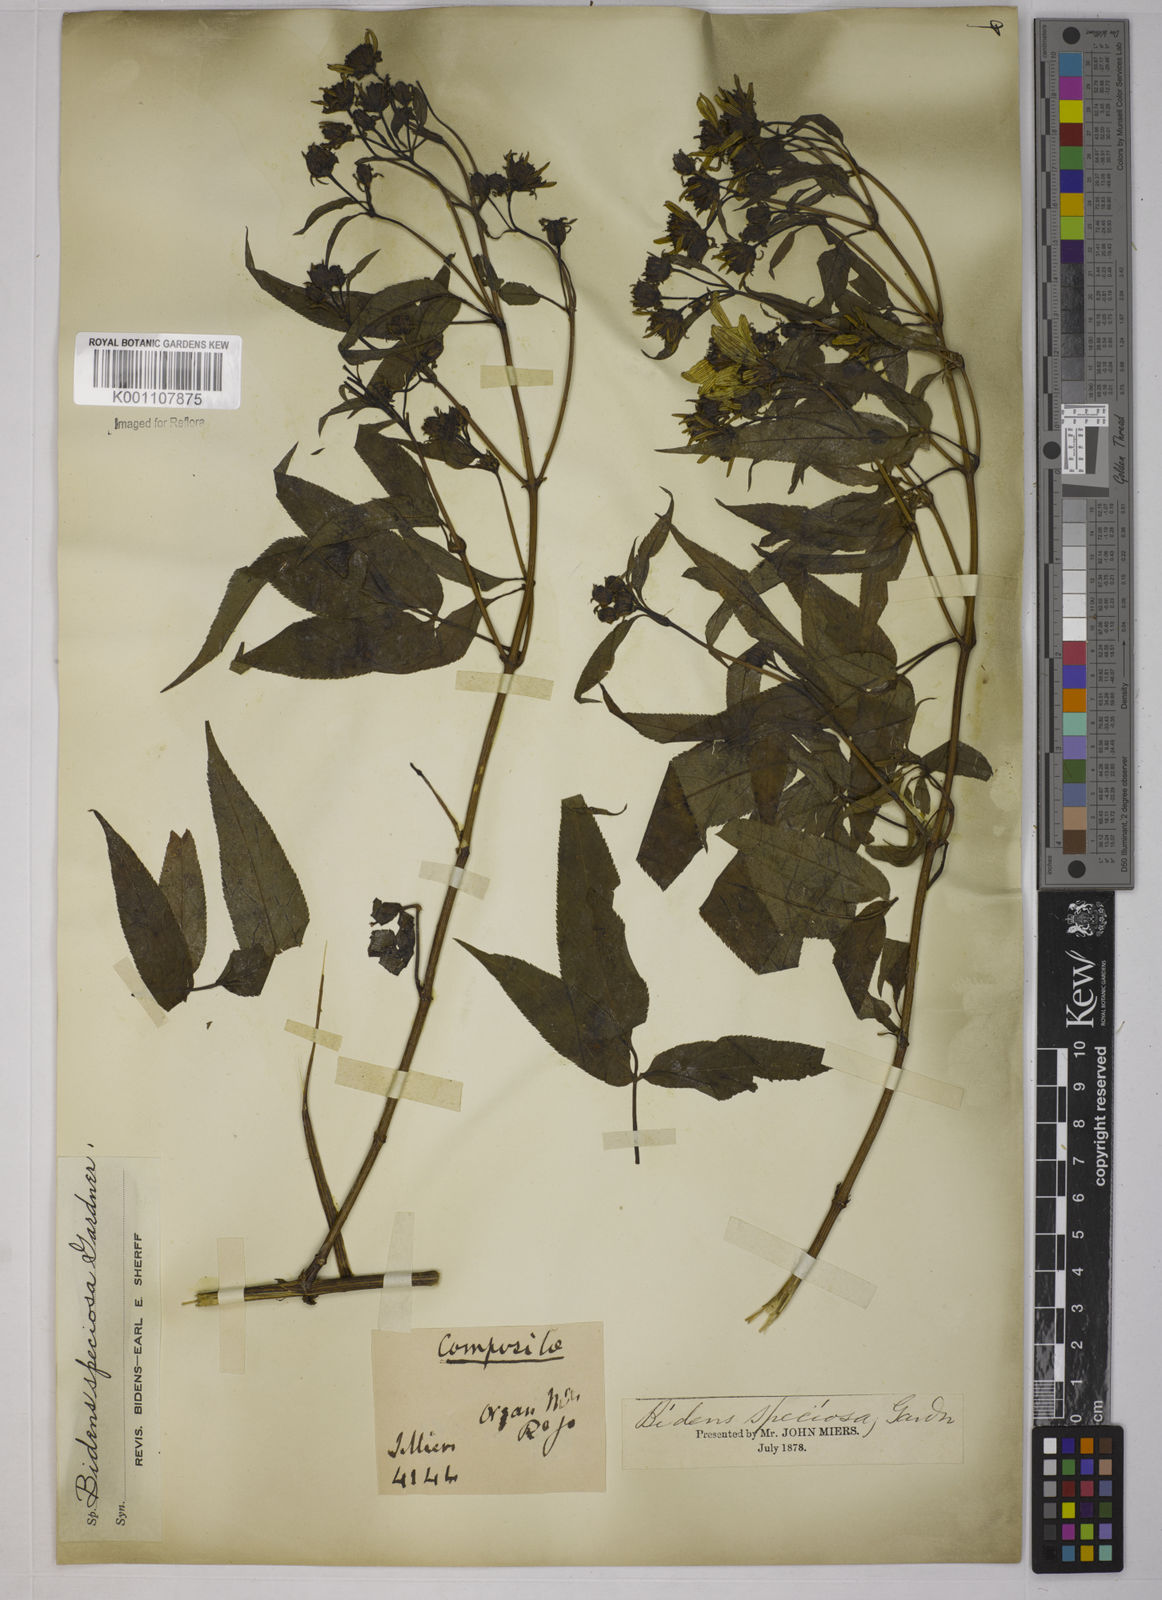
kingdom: Plantae
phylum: Tracheophyta
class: Magnoliopsida
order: Asterales
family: Asteraceae
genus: Bidens
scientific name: Bidens segetum
